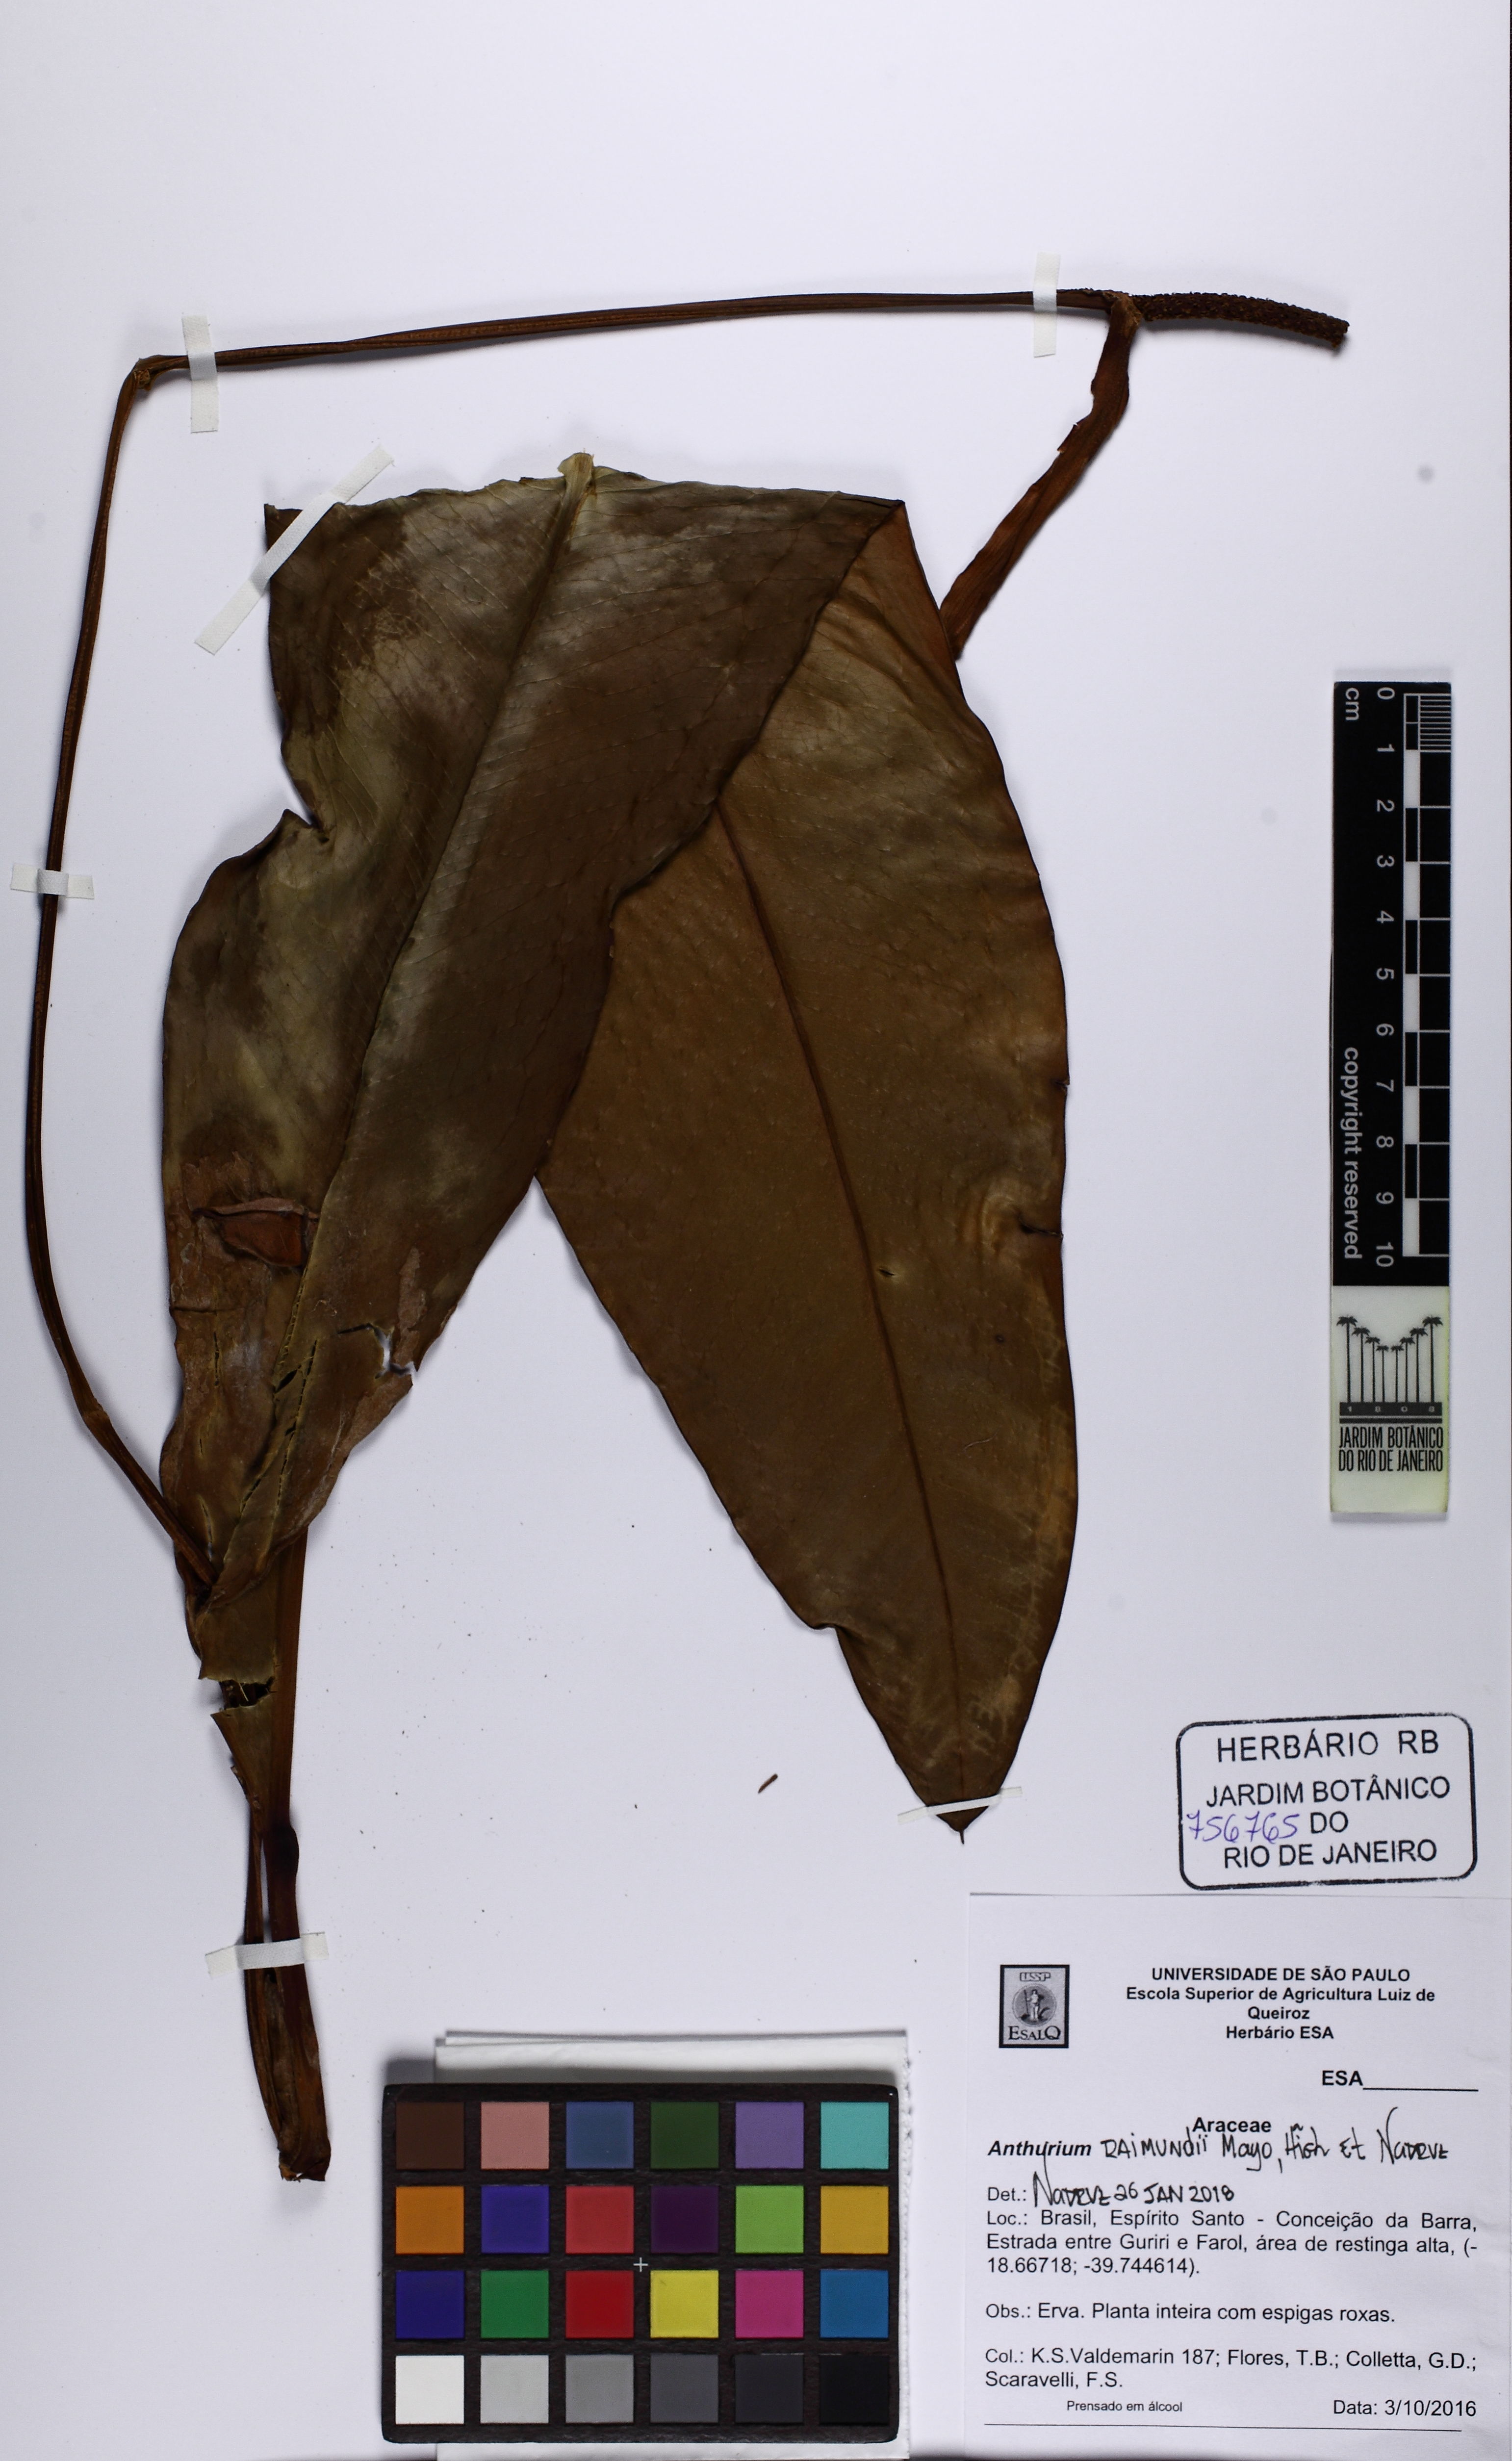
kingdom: Plantae
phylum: Tracheophyta
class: Liliopsida
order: Alismatales
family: Araceae
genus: Anthurium
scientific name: Anthurium raimundii
